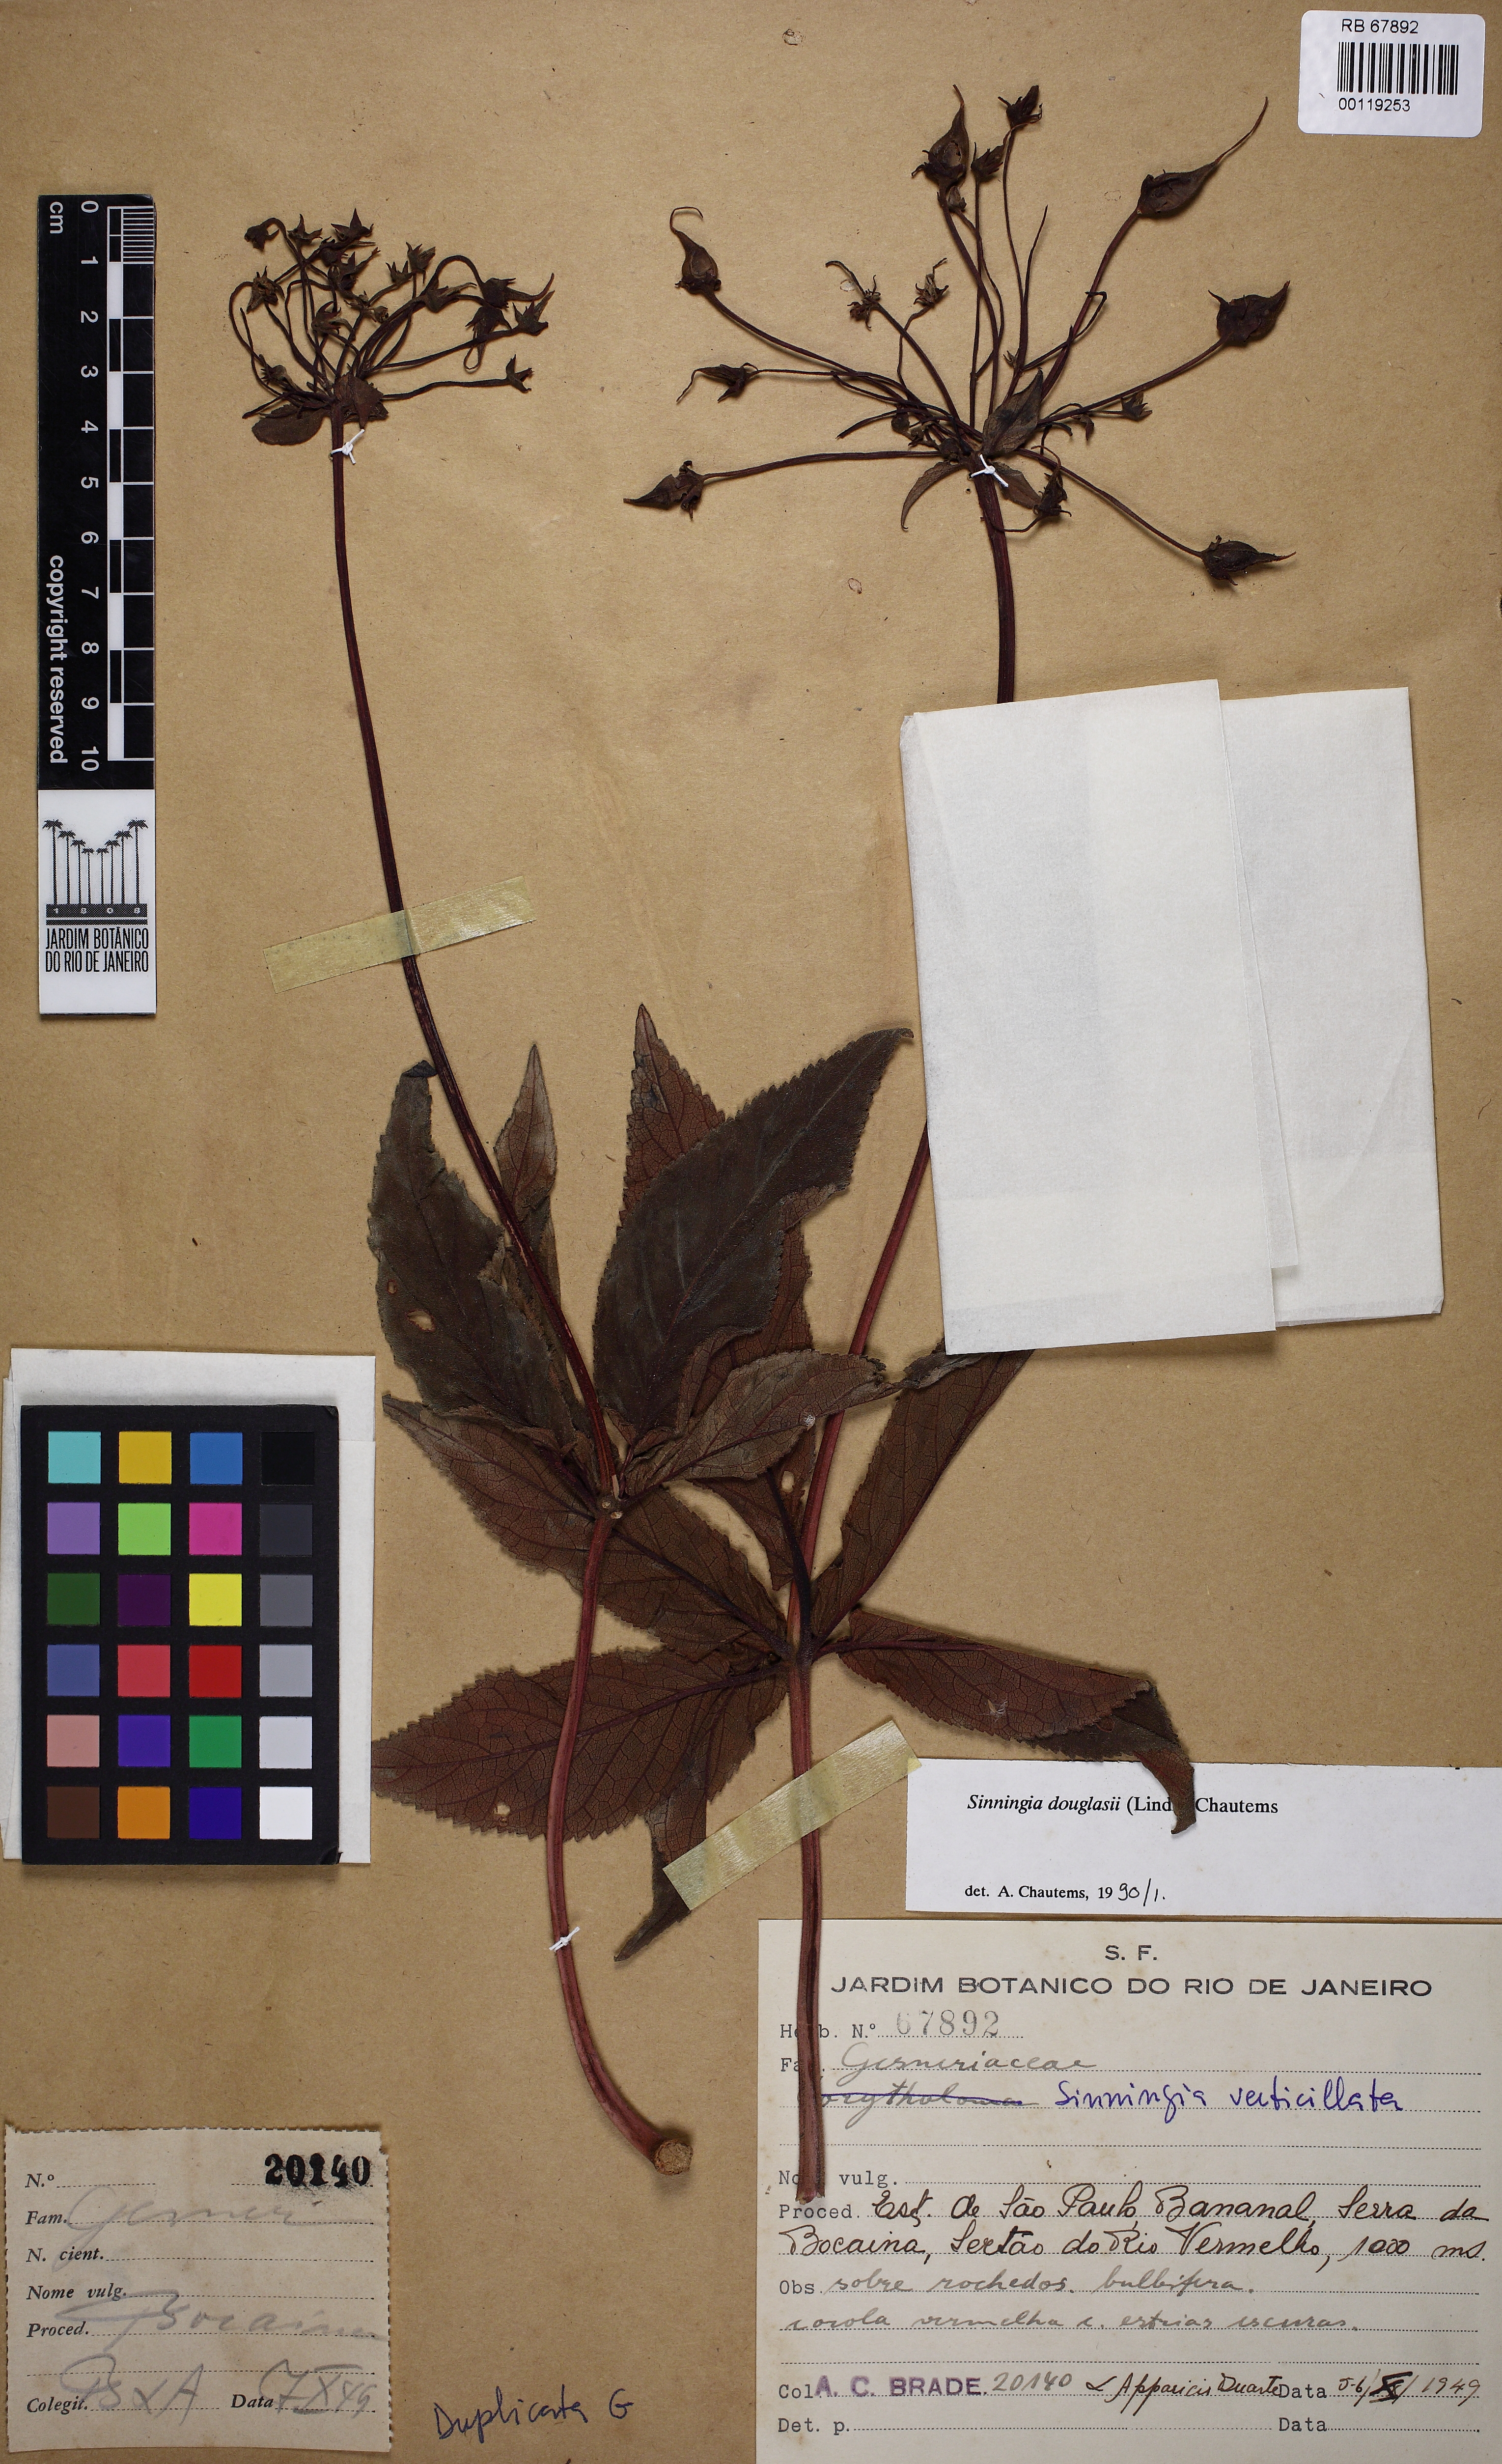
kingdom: Plantae
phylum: Tracheophyta
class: Magnoliopsida
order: Lamiales
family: Gesneriaceae
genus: Sinningia
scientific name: Sinningia douglasii
